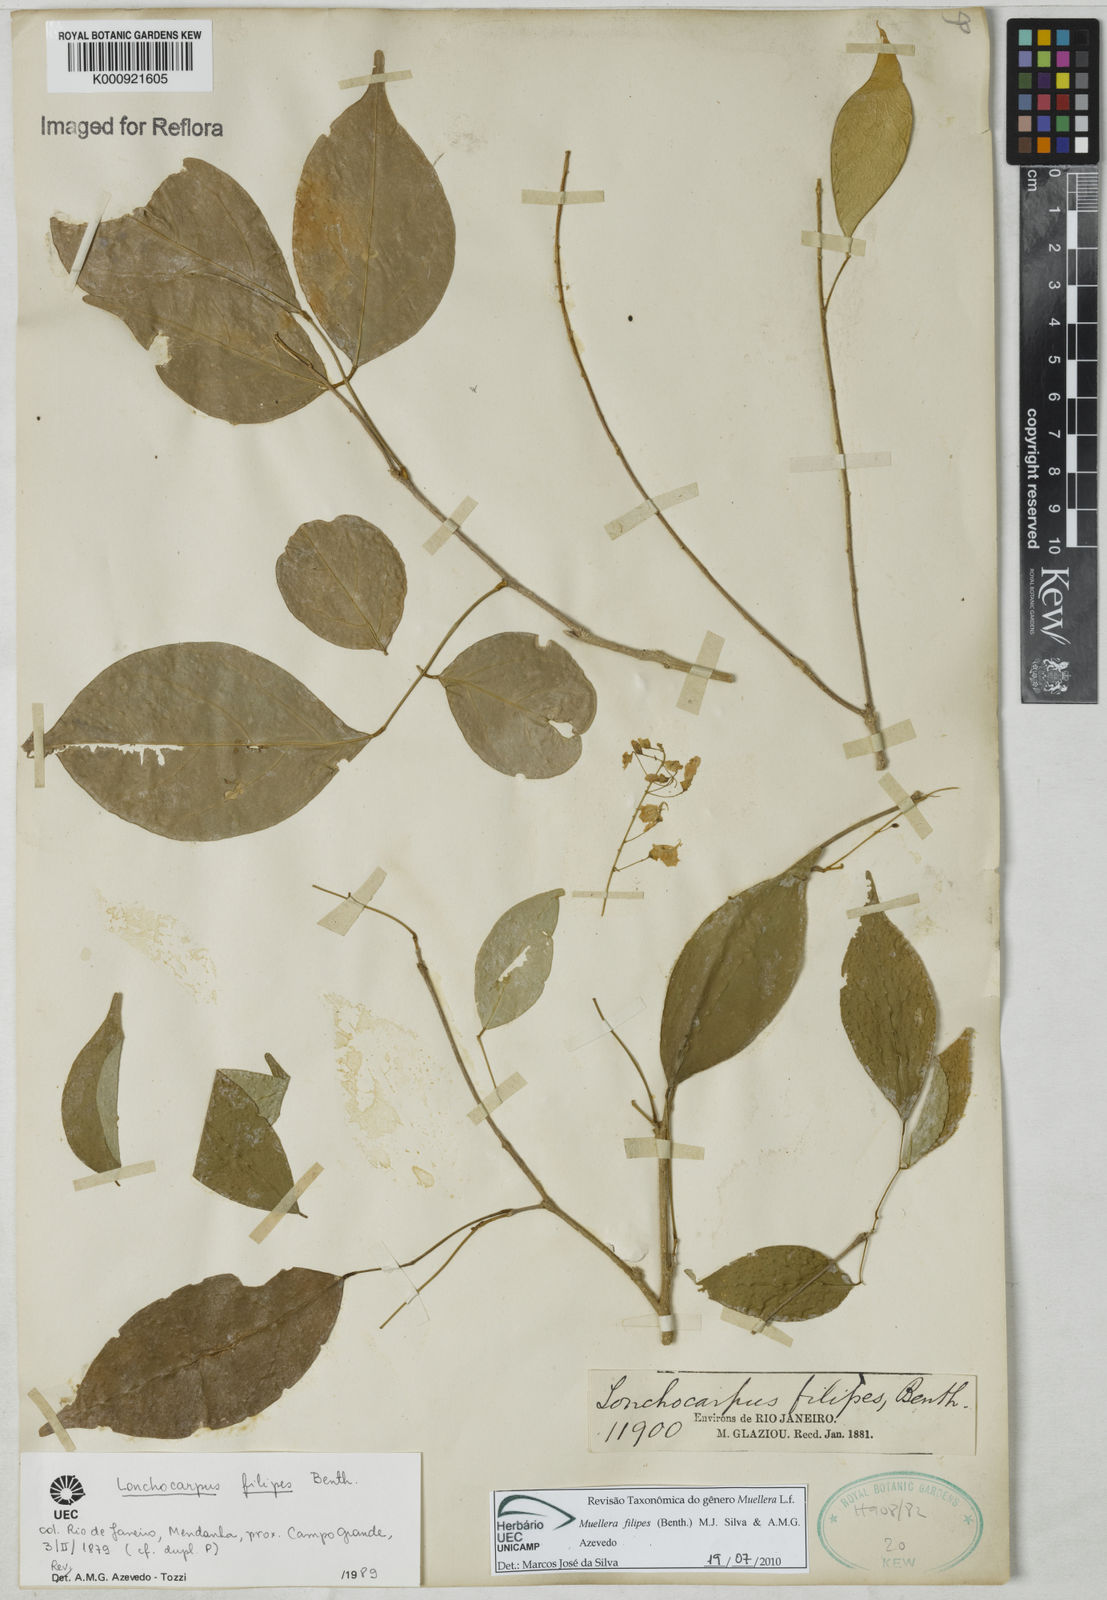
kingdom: Plantae
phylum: Tracheophyta
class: Magnoliopsida
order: Fabales
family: Fabaceae
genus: Muellera
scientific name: Muellera filipes
